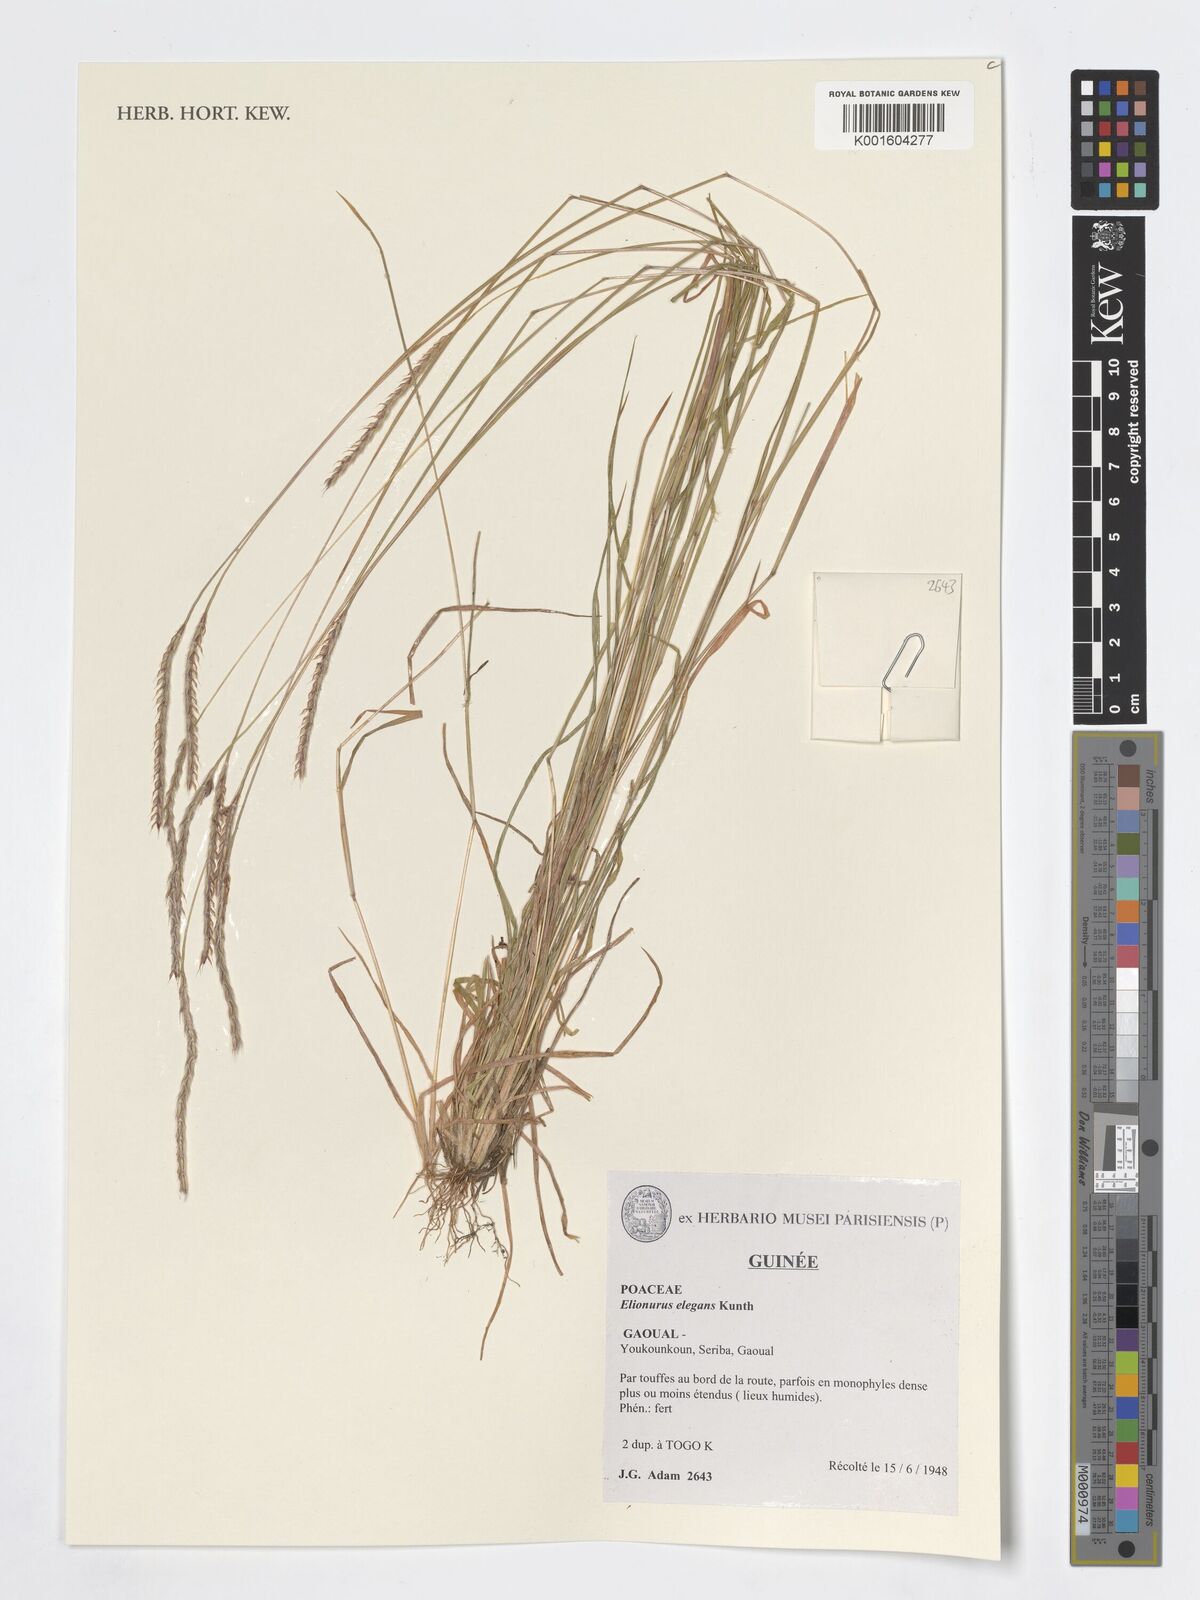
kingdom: Plantae
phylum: Tracheophyta
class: Liliopsida
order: Poales
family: Poaceae
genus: Elionurus
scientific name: Elionurus elegans
